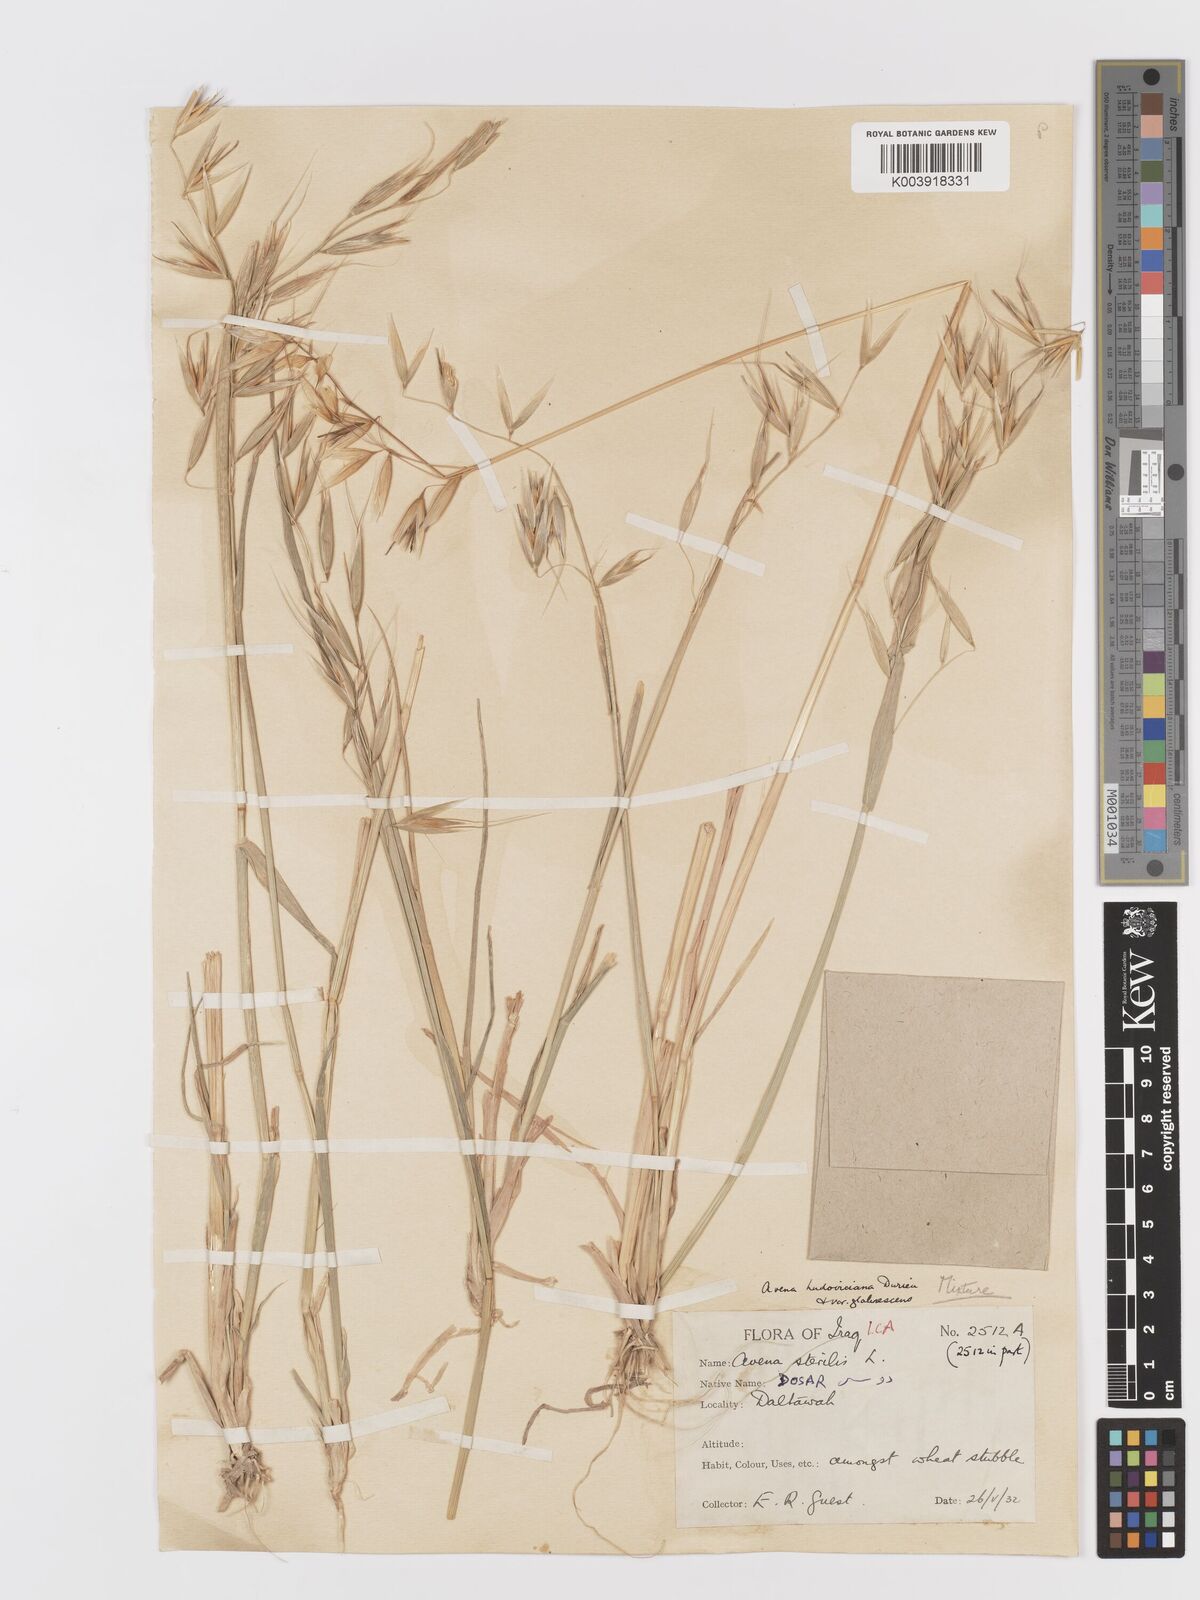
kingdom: Plantae
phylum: Tracheophyta
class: Liliopsida
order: Poales
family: Poaceae
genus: Avena
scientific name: Avena sterilis
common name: Animated oat
